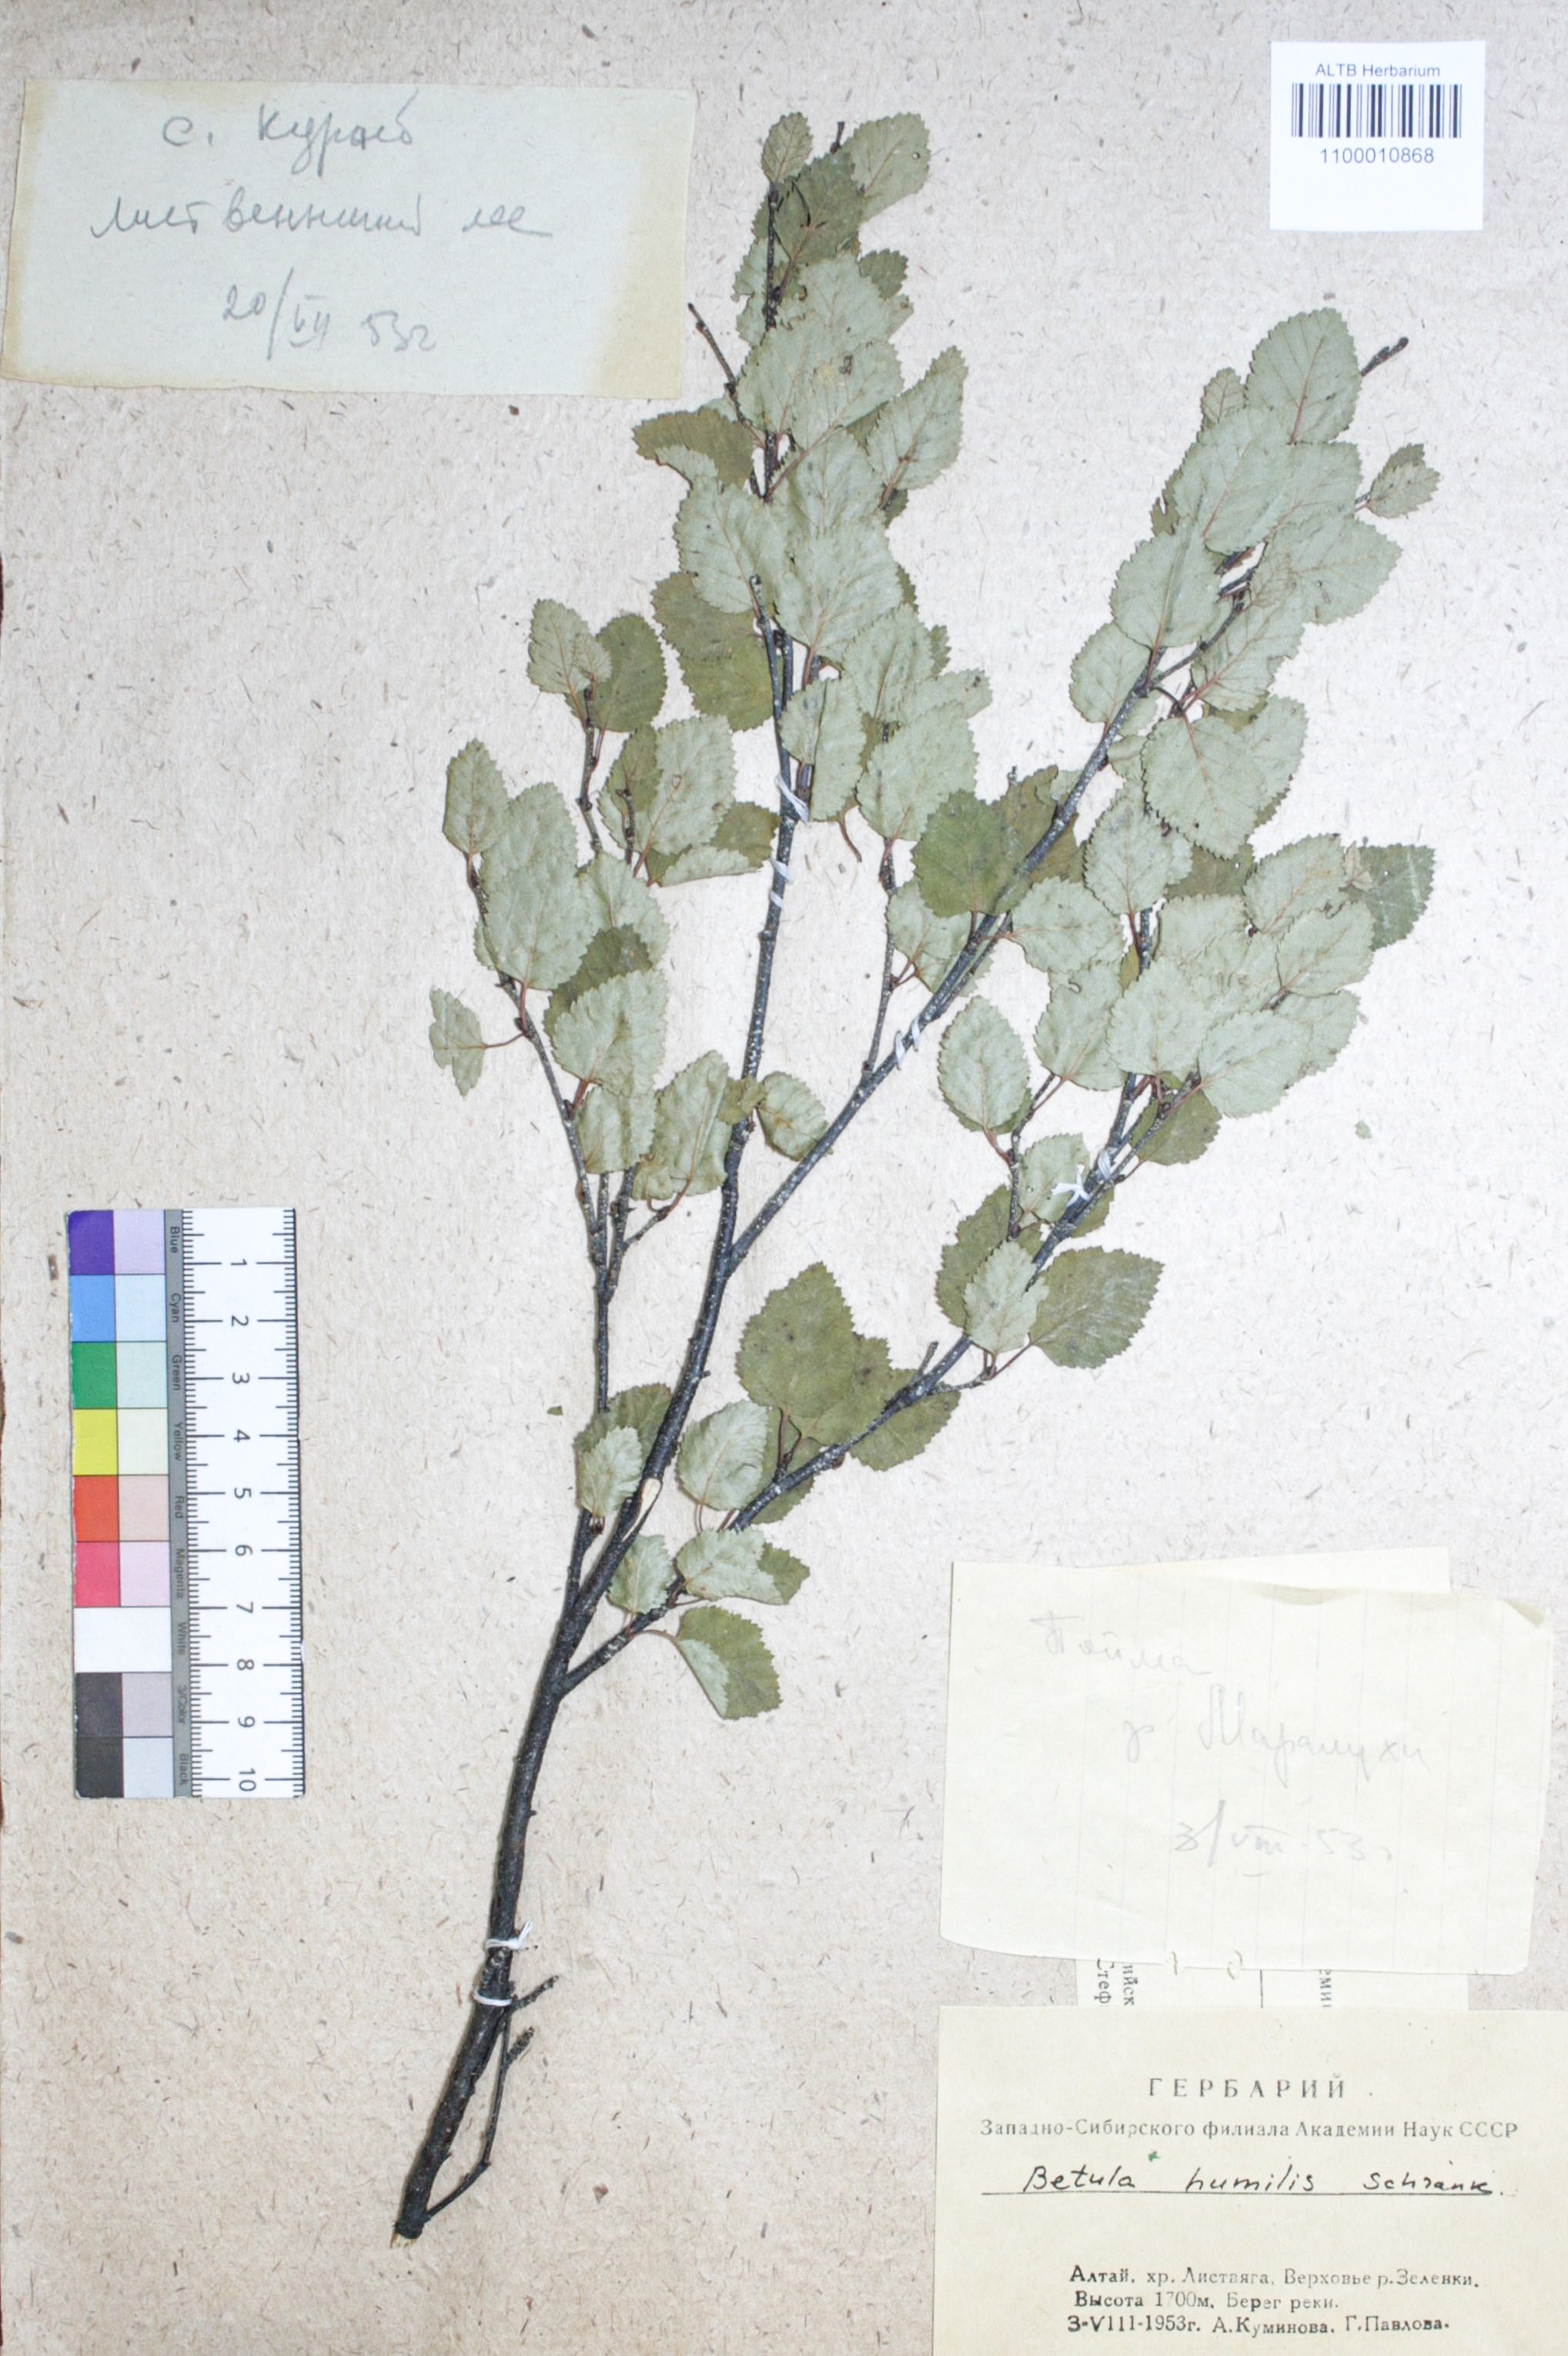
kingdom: Plantae
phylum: Tracheophyta
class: Magnoliopsida
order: Fagales
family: Betulaceae
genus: Betula
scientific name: Betula humilis
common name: Shrubby birch
